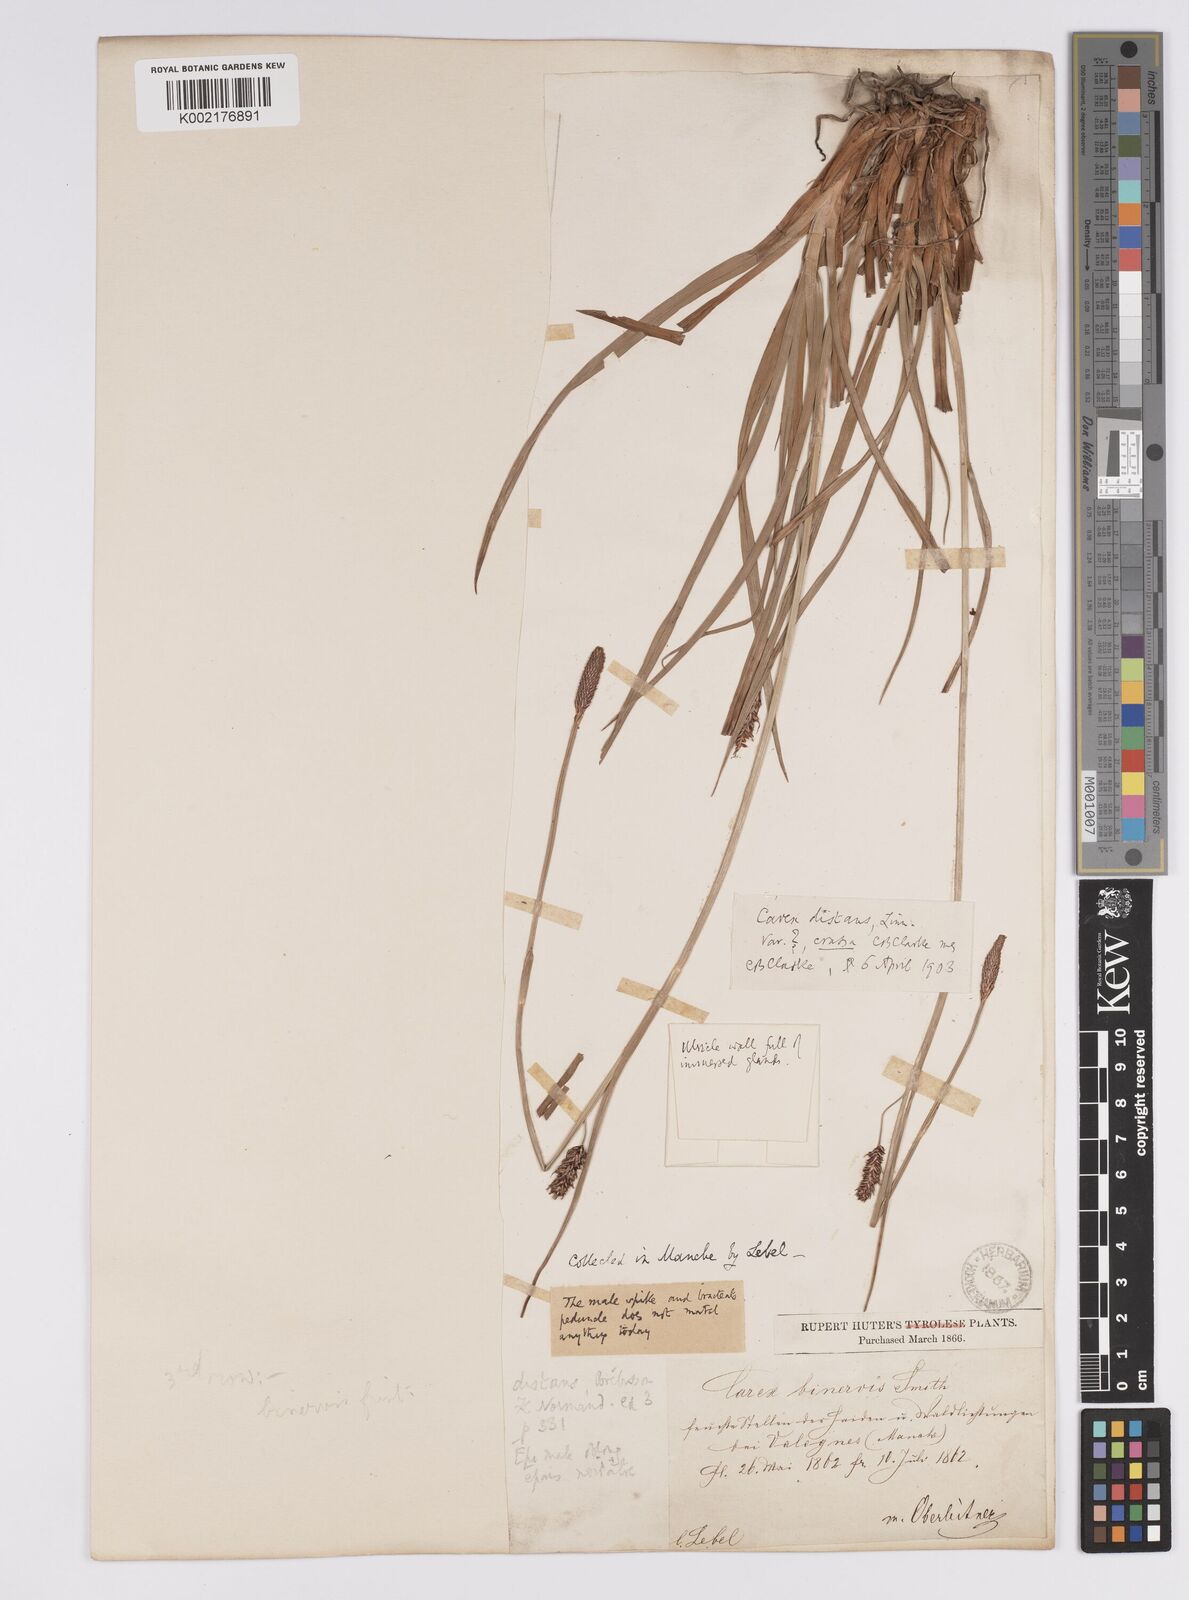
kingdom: Plantae
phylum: Tracheophyta
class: Liliopsida
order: Poales
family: Cyperaceae
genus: Carex
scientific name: Carex binervis
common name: Green-ribbed sedge
